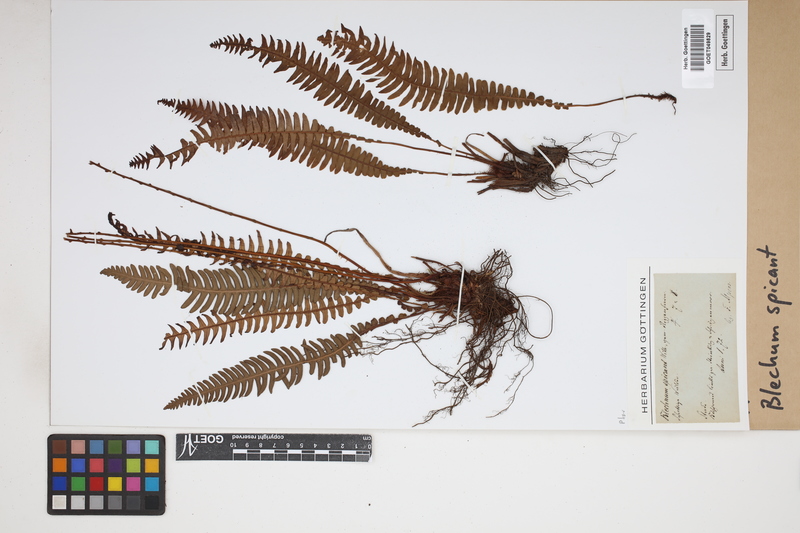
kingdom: Plantae
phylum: Tracheophyta
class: Polypodiopsida
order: Polypodiales
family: Blechnaceae
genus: Struthiopteris
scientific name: Struthiopteris spicant
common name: Deer fern
